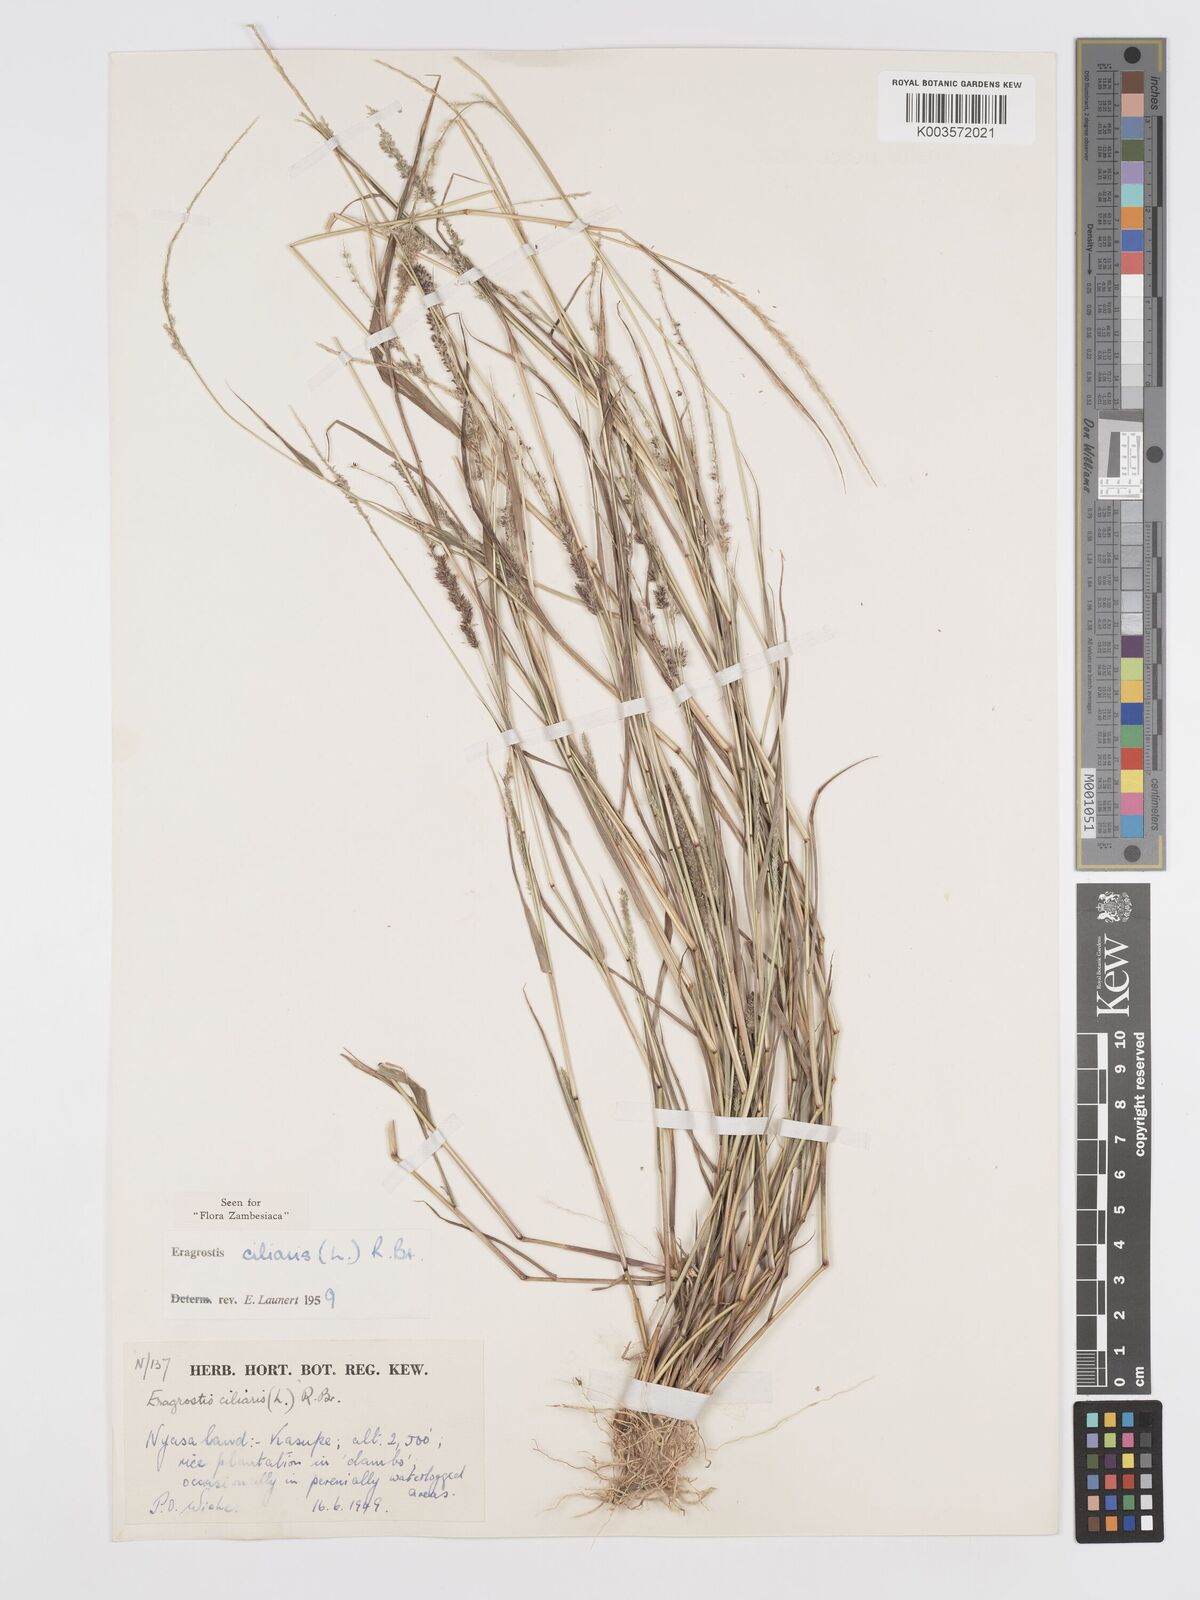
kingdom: Plantae
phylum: Tracheophyta
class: Liliopsida
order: Poales
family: Poaceae
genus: Eragrostis
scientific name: Eragrostis ciliaris
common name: Gophertail lovegrass
